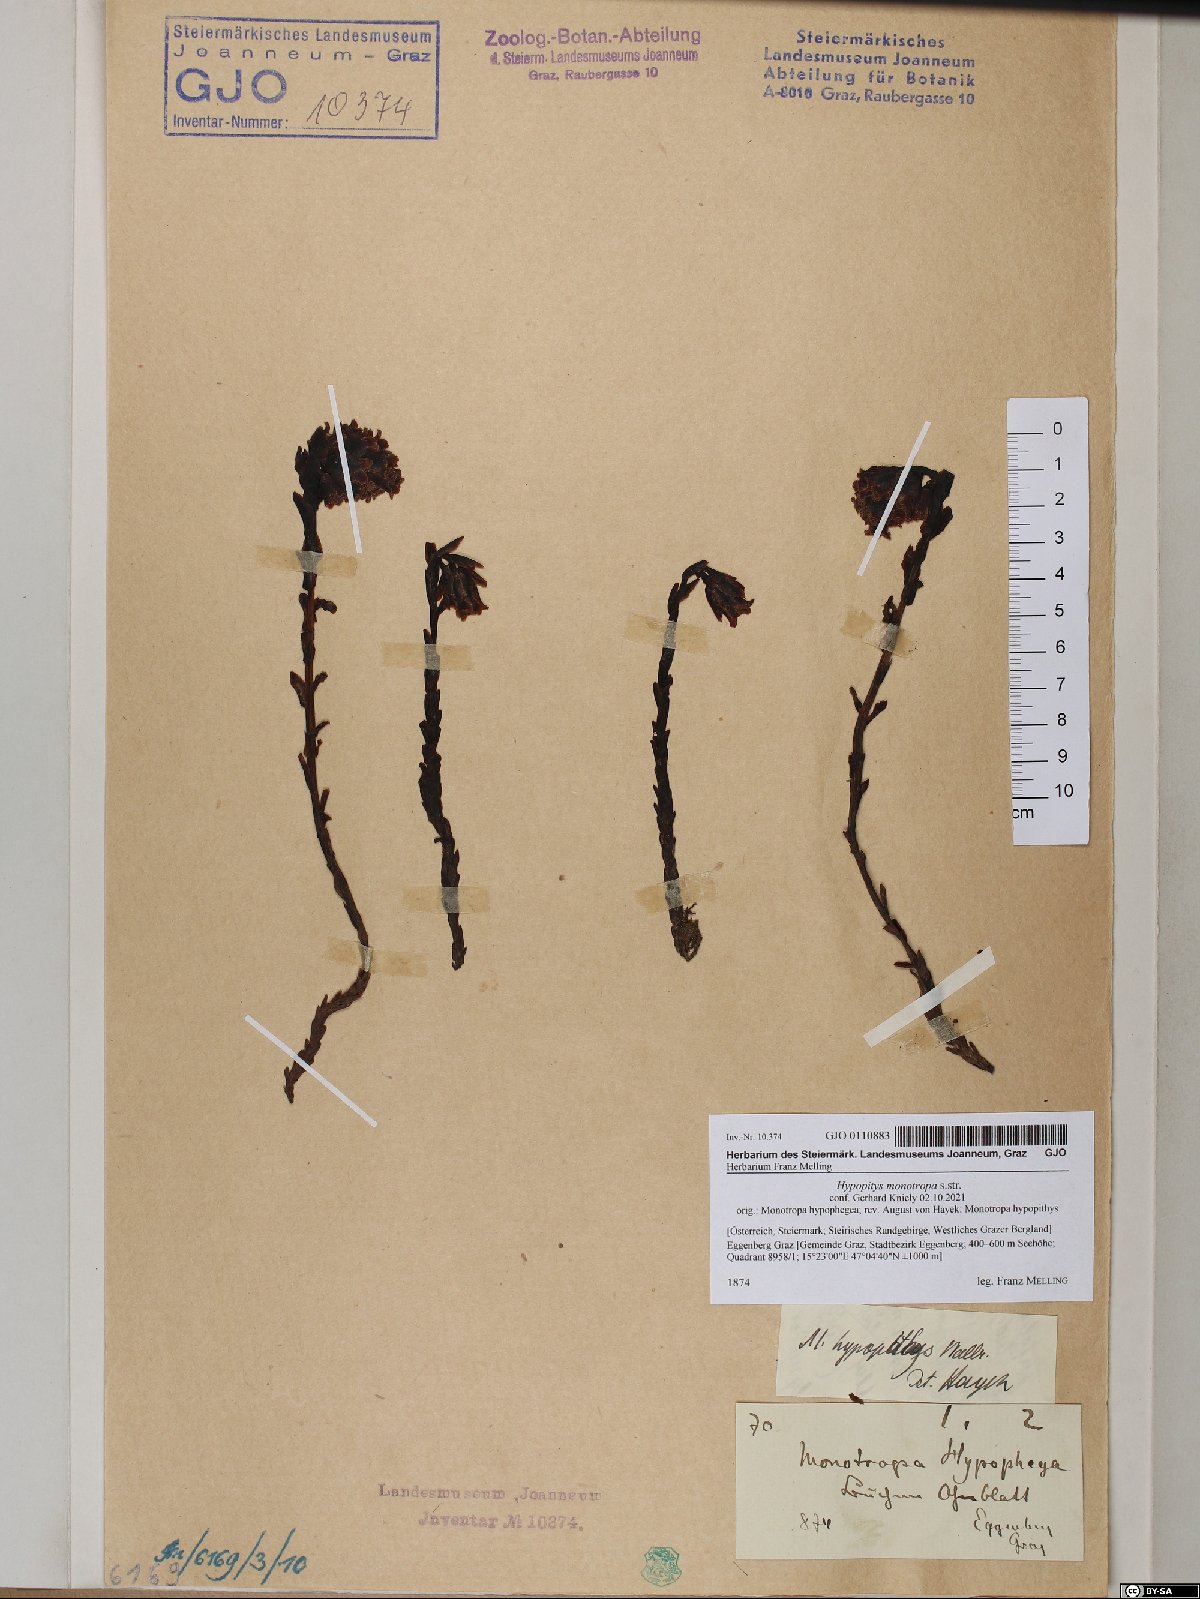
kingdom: Plantae
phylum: Tracheophyta
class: Magnoliopsida
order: Ericales
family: Ericaceae
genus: Hypopitys
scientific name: Hypopitys monotropa
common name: Yellow bird's-nest
